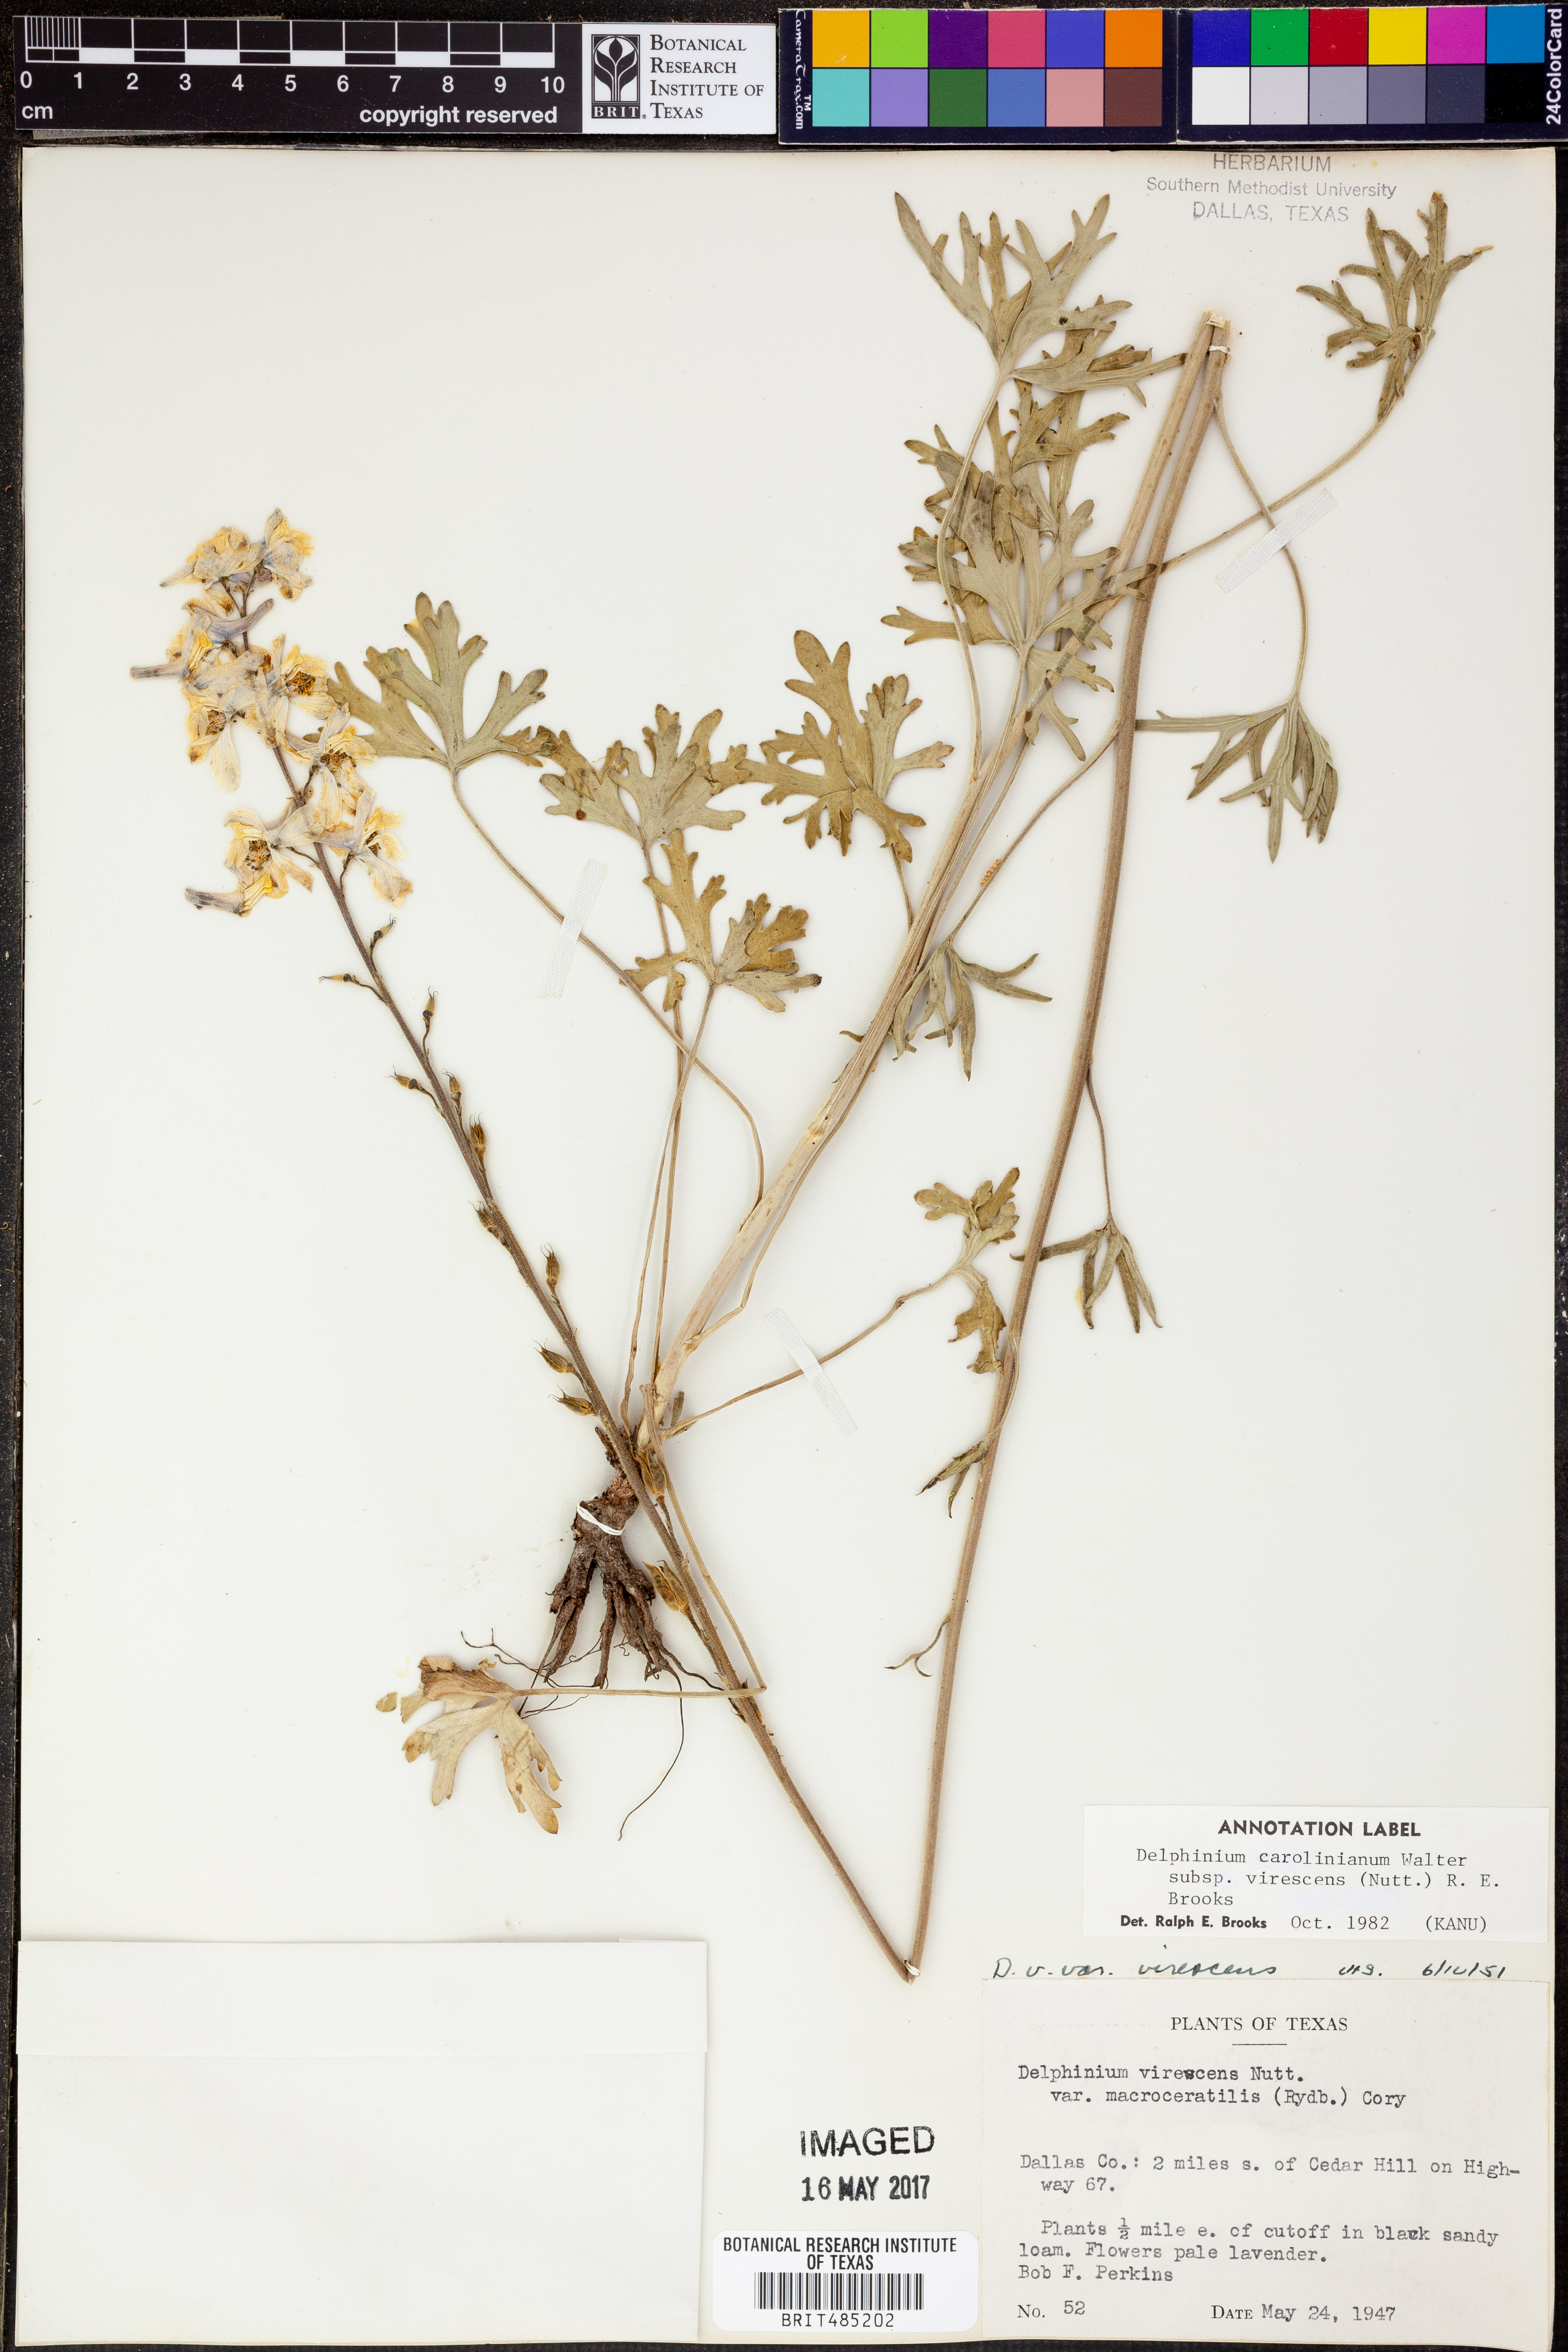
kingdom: Plantae
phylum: Tracheophyta
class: Magnoliopsida
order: Ranunculales
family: Ranunculaceae
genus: Delphinium
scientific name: Delphinium carolinianum
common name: Carolina larkspur
